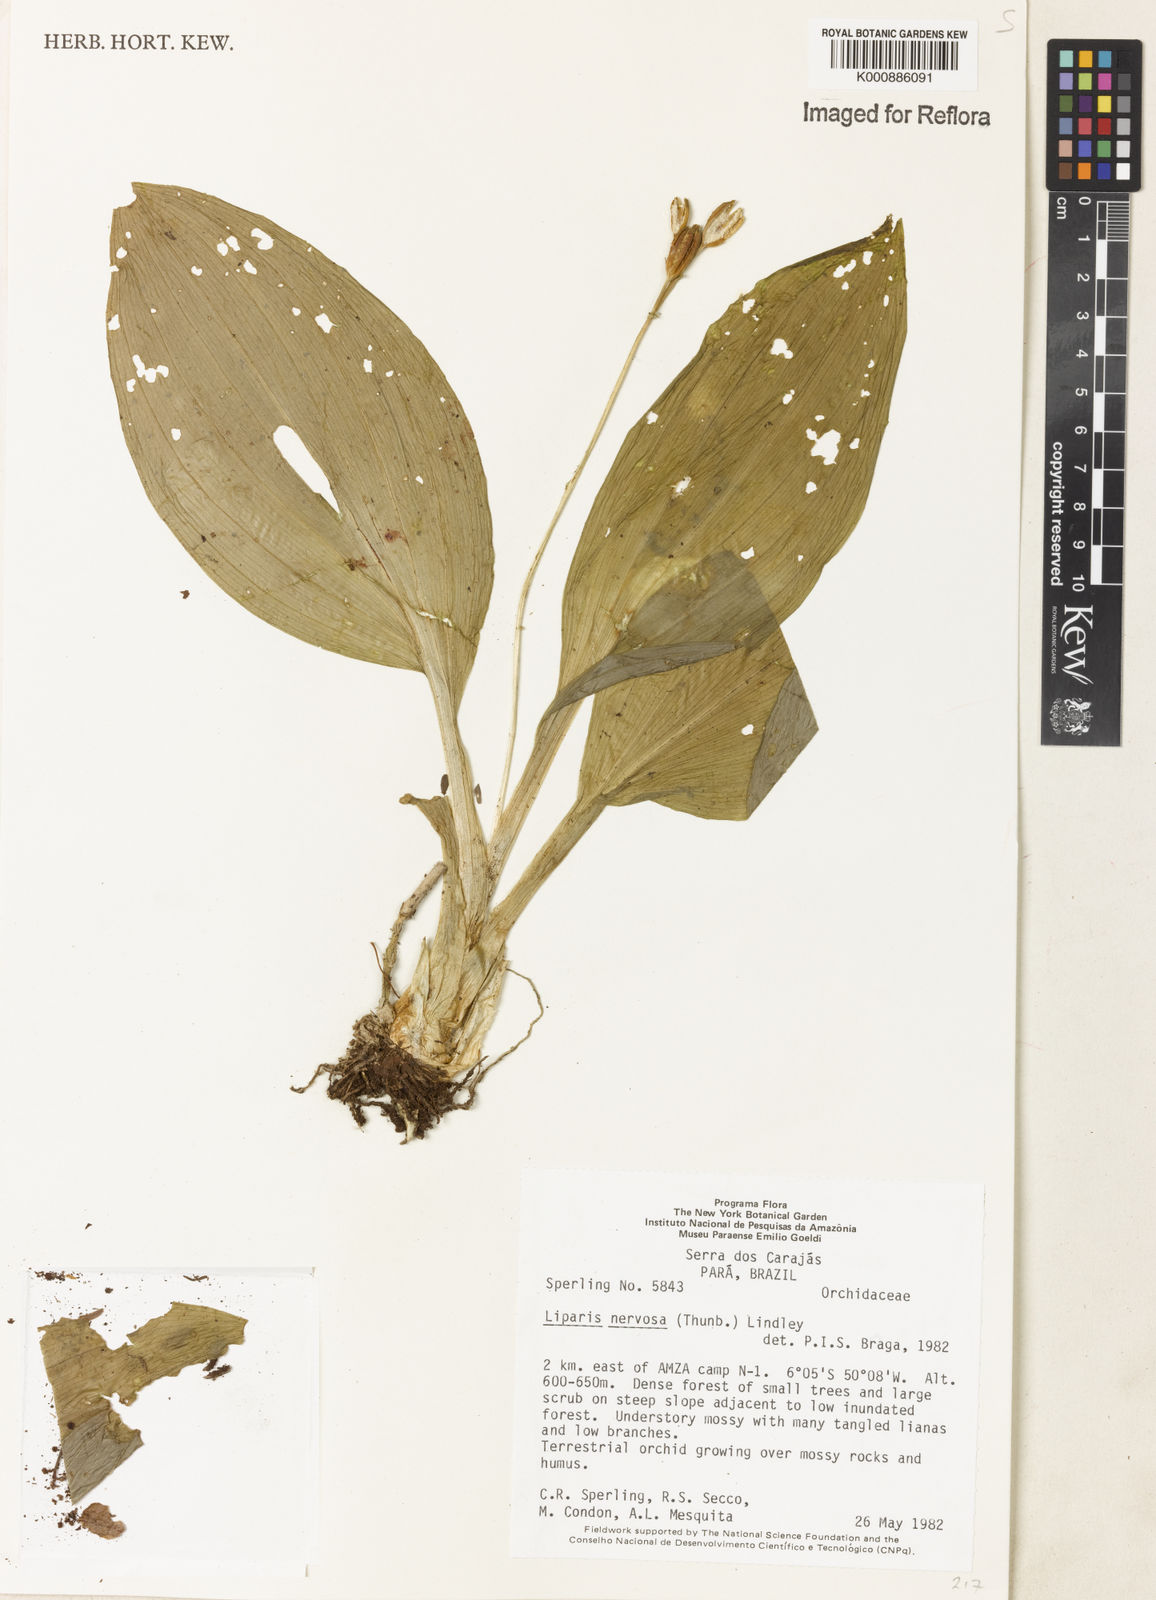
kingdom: Plantae
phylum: Tracheophyta
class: Liliopsida
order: Asparagales
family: Orchidaceae
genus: Liparis
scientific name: Liparis nervosa
